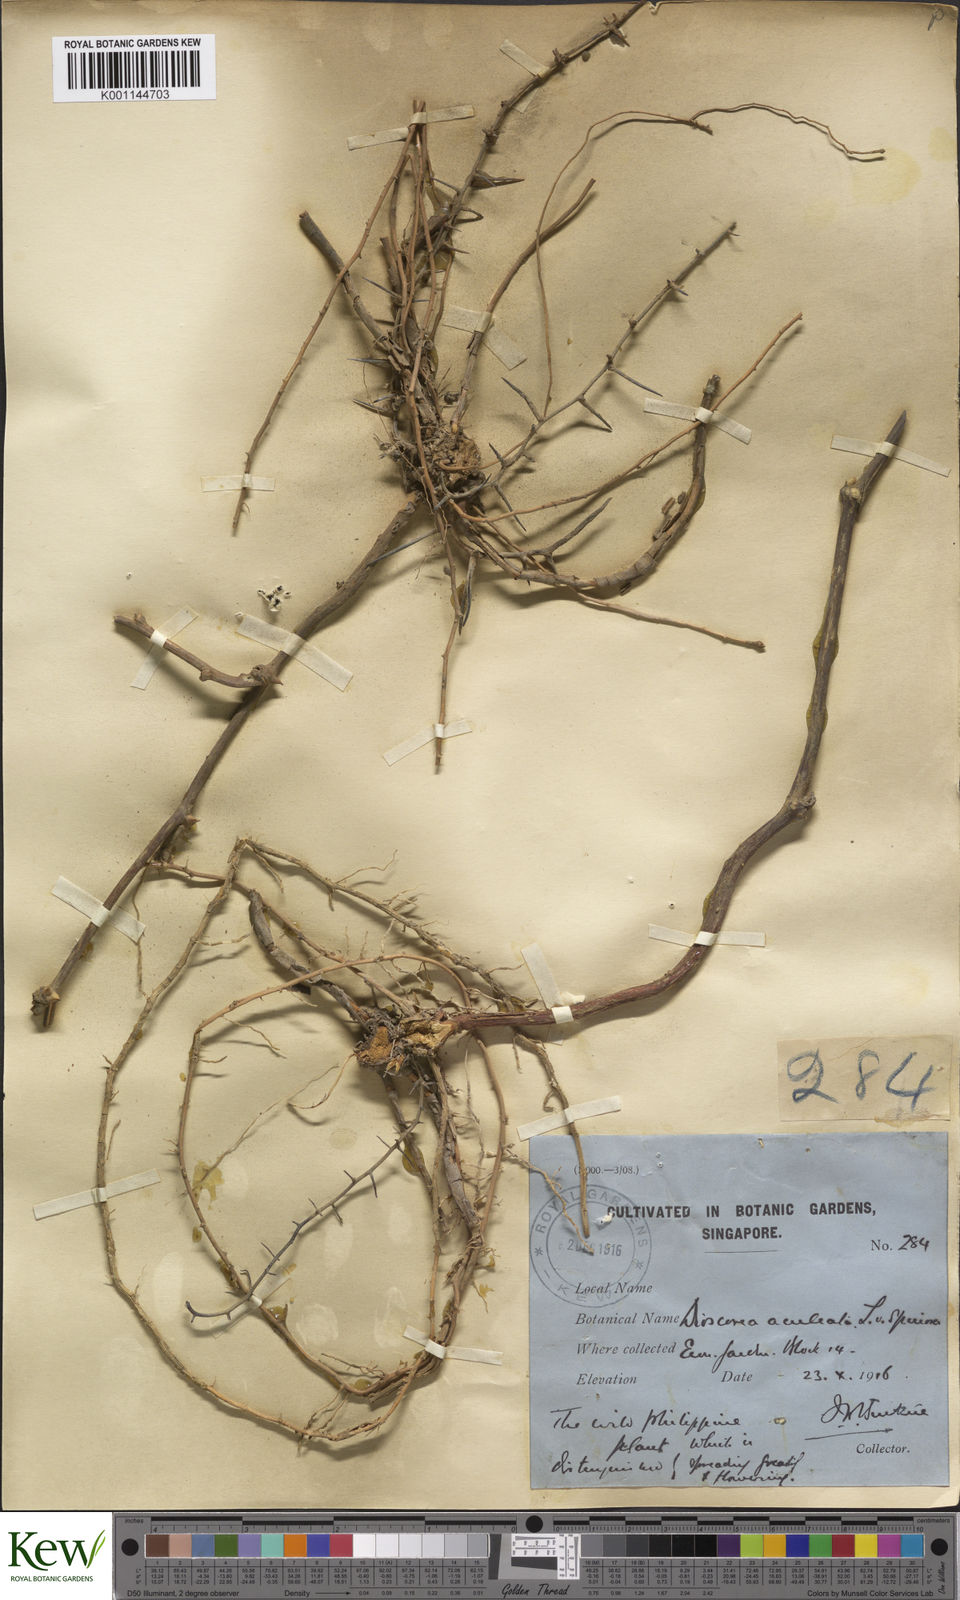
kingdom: Plantae
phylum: Tracheophyta
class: Liliopsida
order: Dioscoreales
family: Dioscoreaceae
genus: Dioscorea
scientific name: Dioscorea esculenta
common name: Chinese yam
